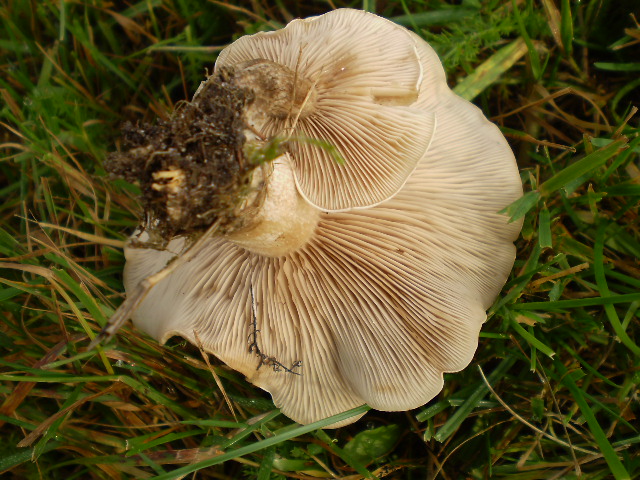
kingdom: Fungi
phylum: Basidiomycota
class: Agaricomycetes
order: Agaricales
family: Tricholomataceae
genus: Lepista
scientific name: Lepista panaeolus
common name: marmoreret hekseringshat
